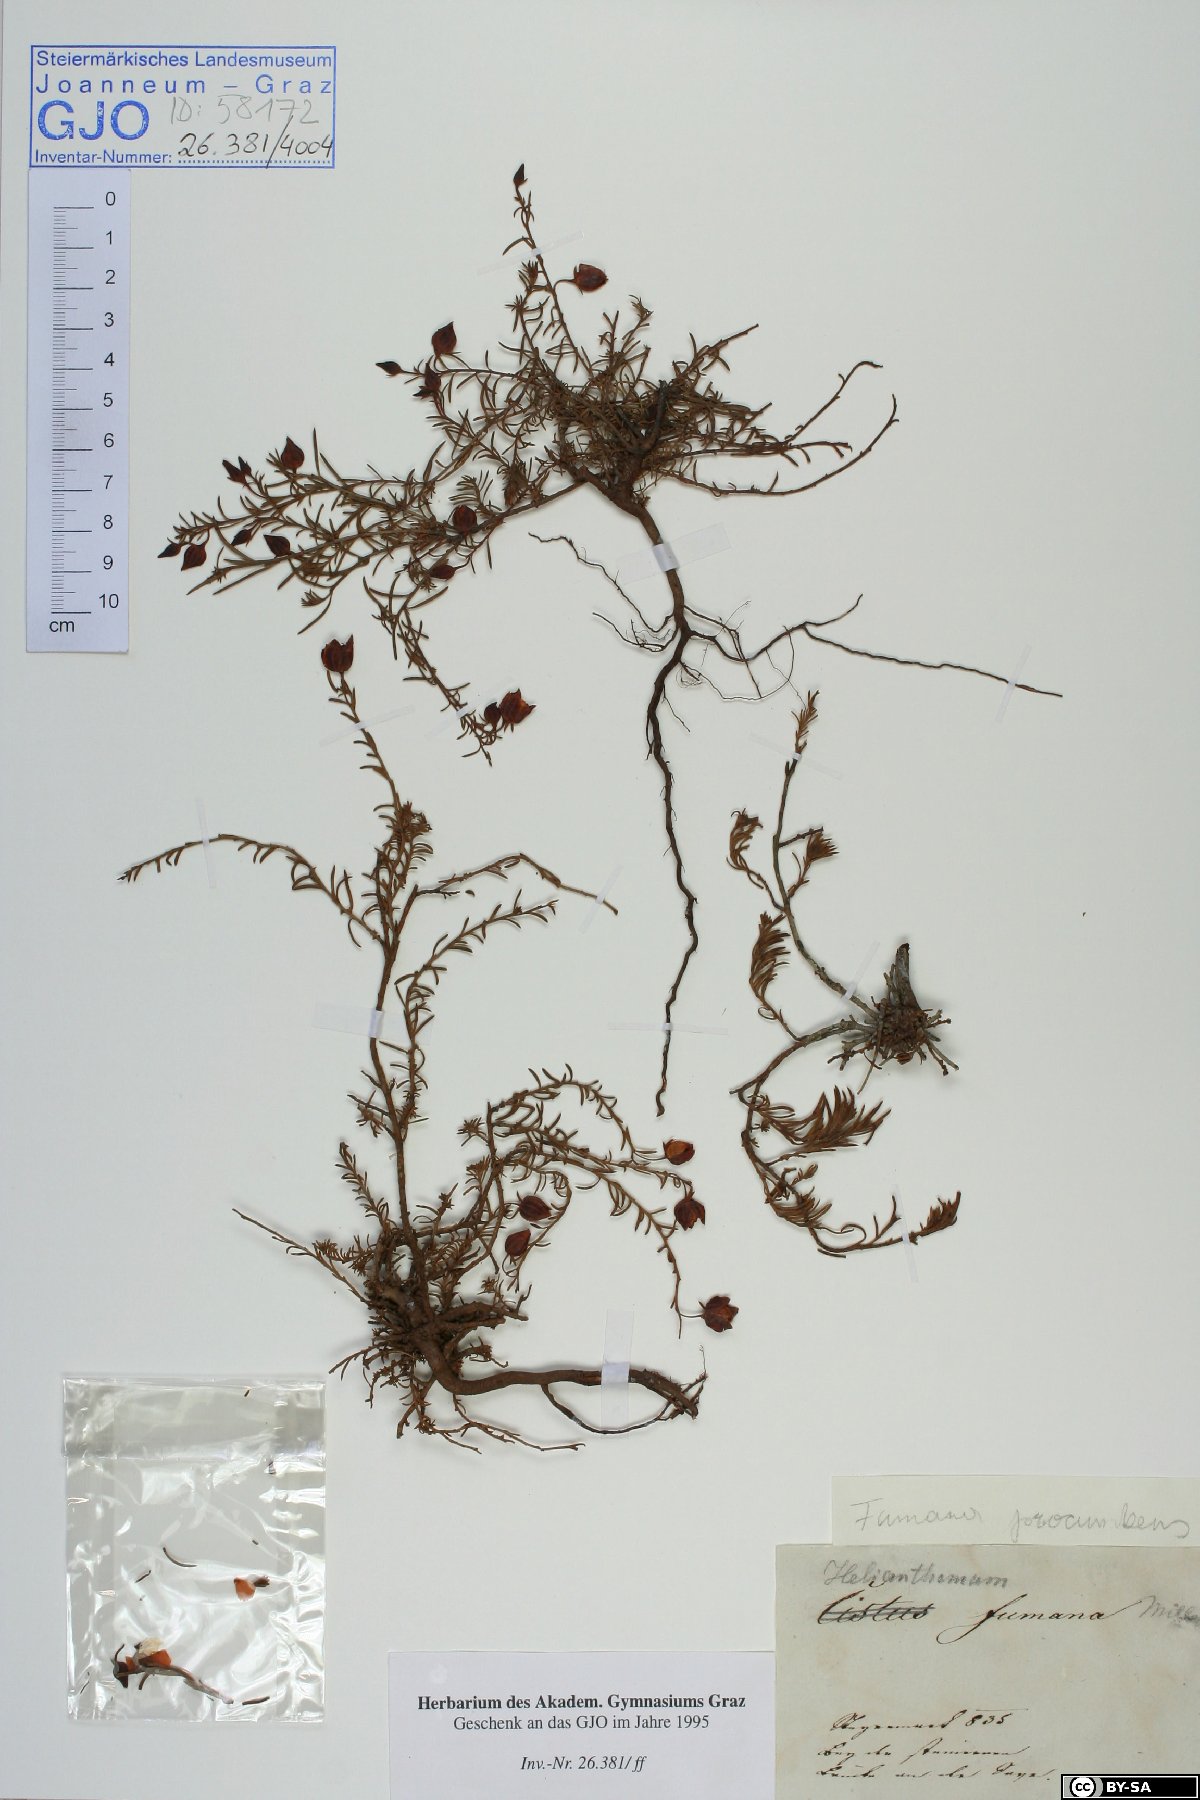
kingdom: Plantae
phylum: Tracheophyta
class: Magnoliopsida
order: Malvales
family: Cistaceae
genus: Fumana
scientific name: Fumana procumbens
